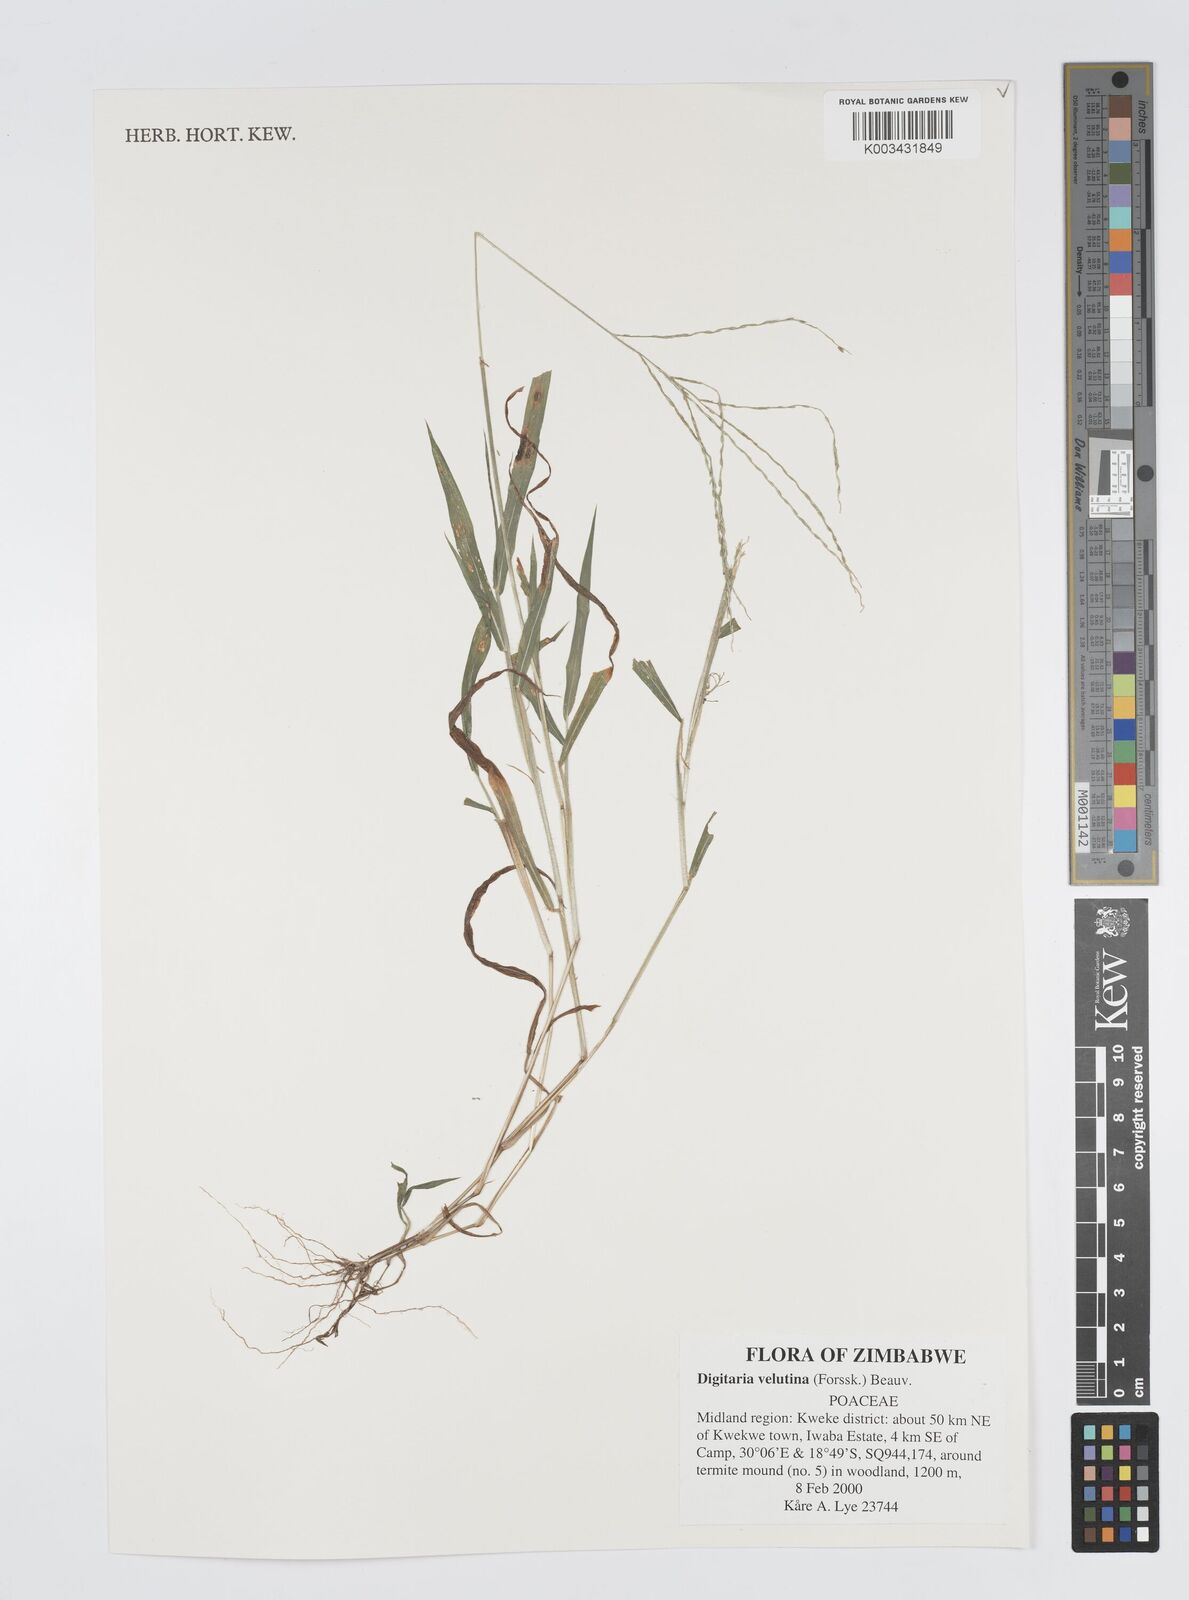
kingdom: Plantae
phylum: Tracheophyta
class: Liliopsida
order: Poales
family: Poaceae
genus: Digitaria
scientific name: Digitaria velutina
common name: Long-plume finger grass
